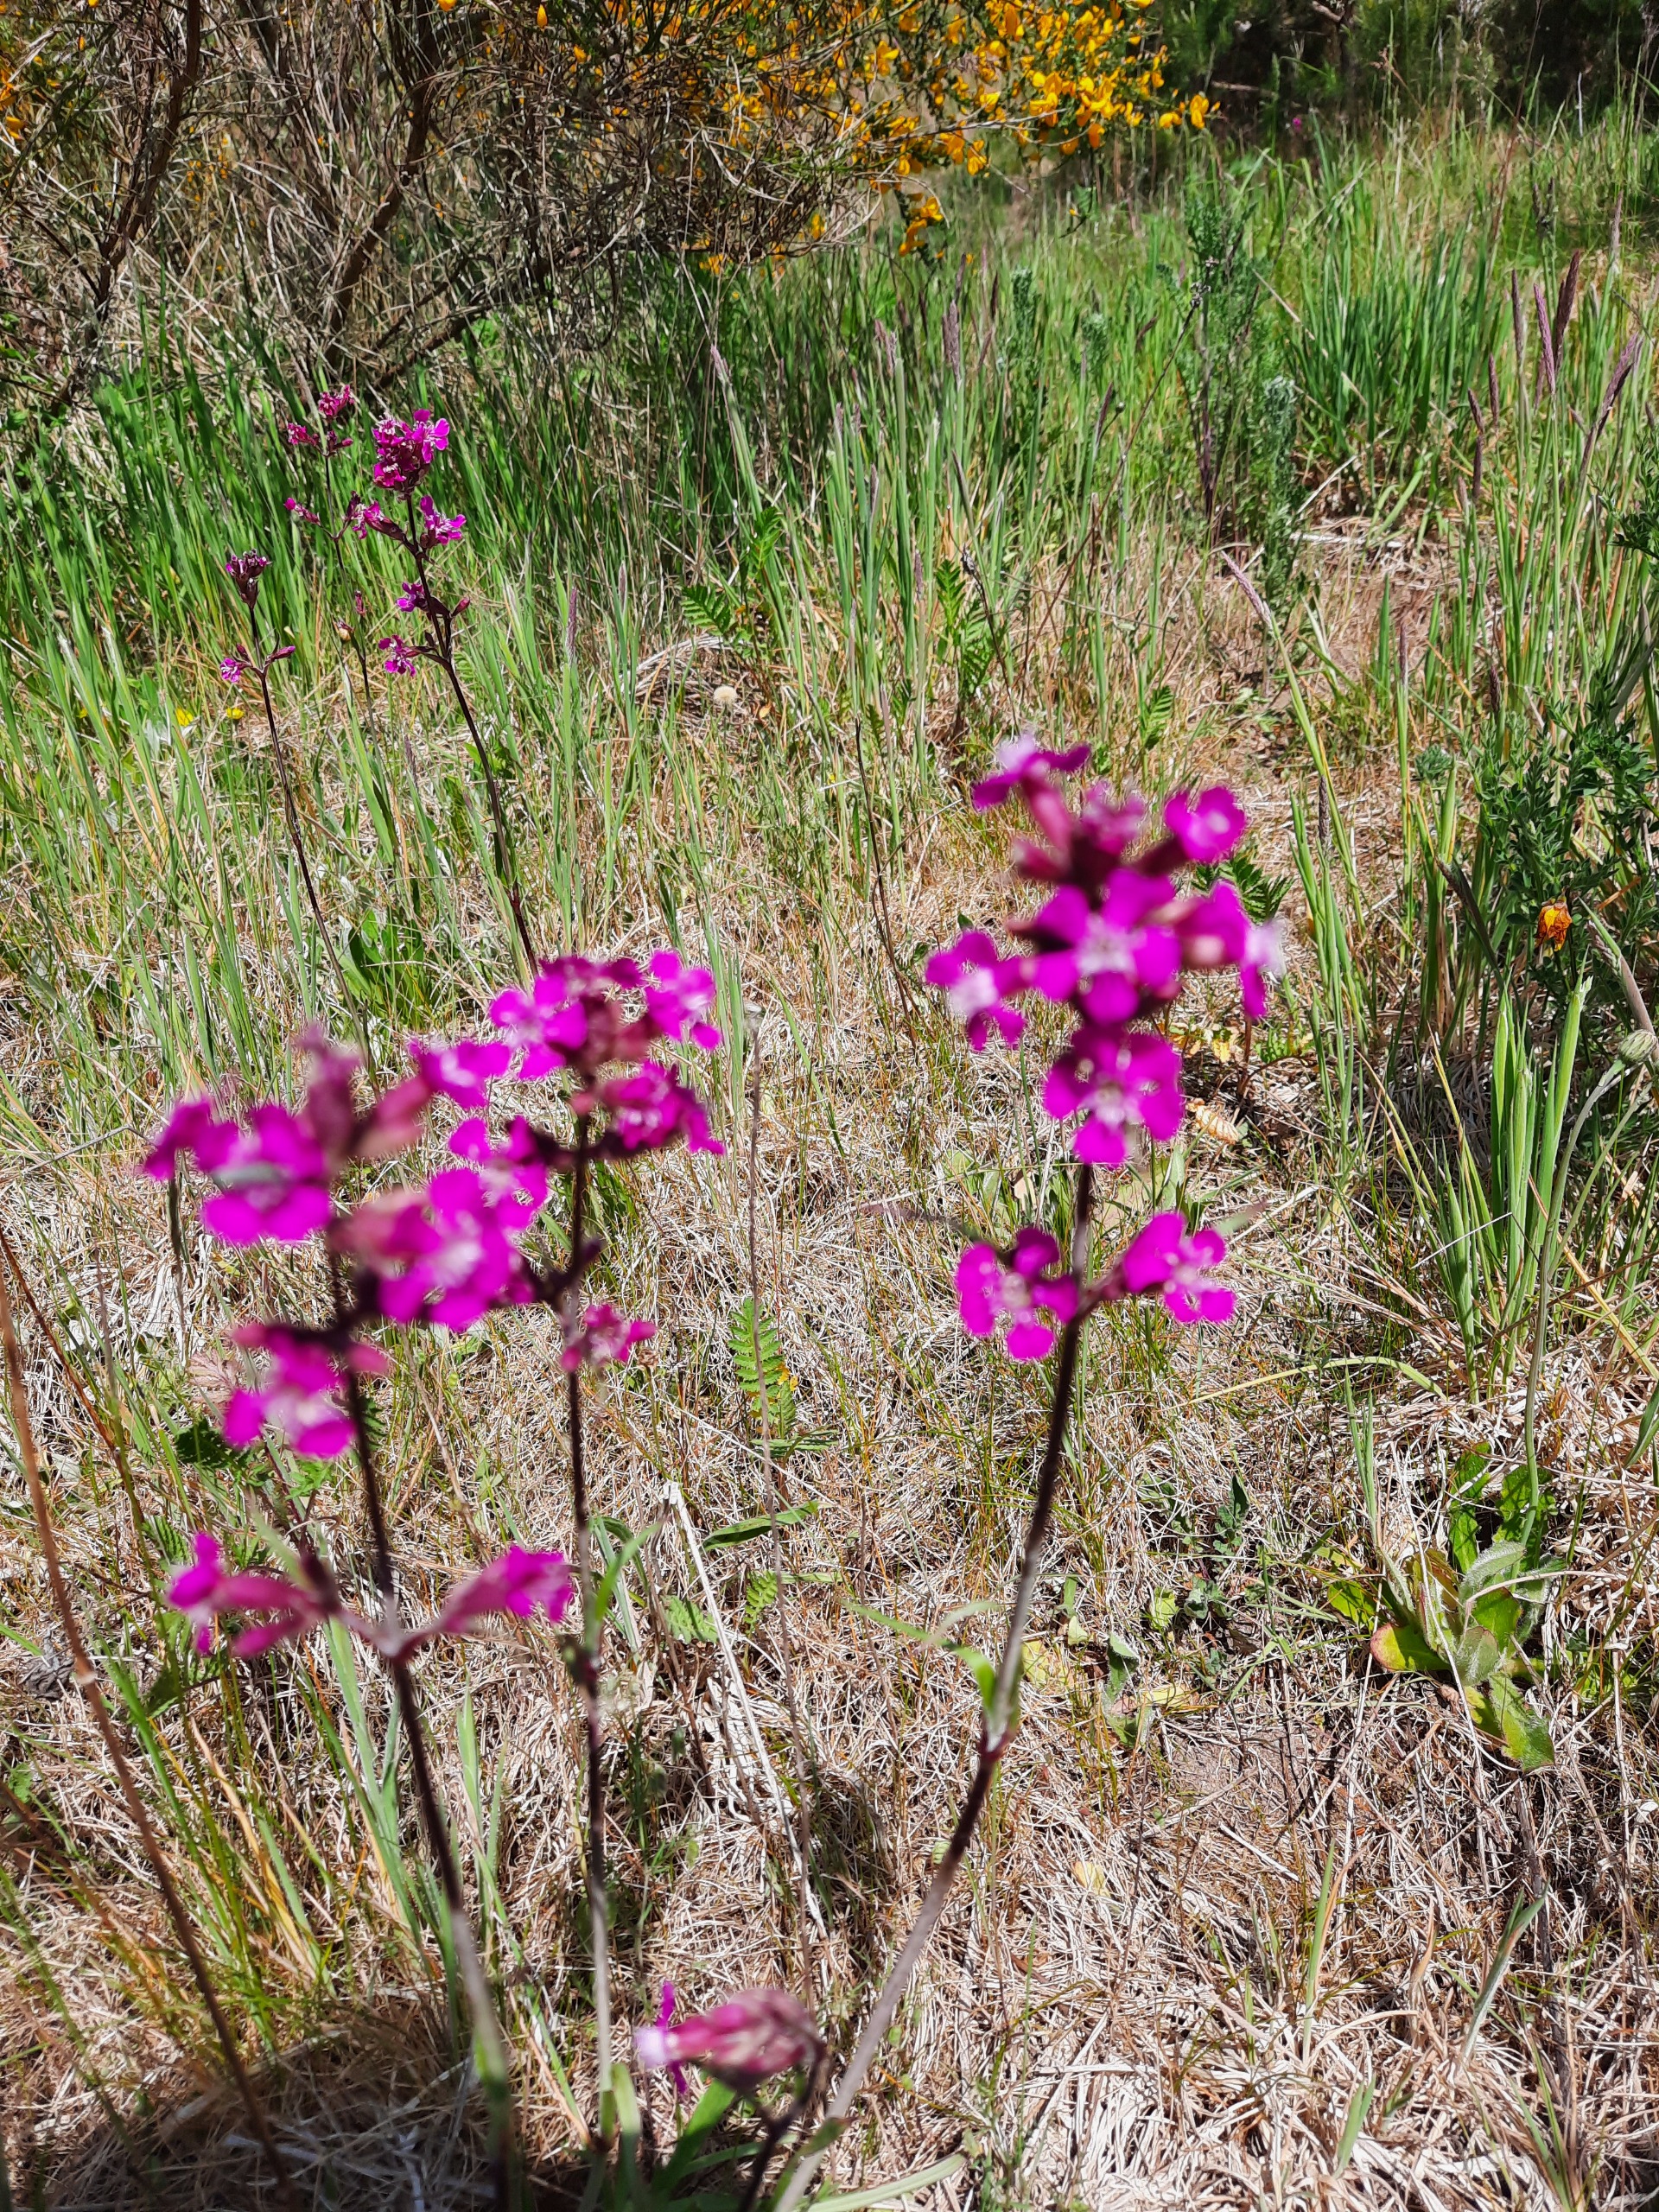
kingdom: Plantae
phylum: Tracheophyta
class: Magnoliopsida
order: Caryophyllales
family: Caryophyllaceae
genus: Viscaria
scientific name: Viscaria vulgaris
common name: Tjærenellike
